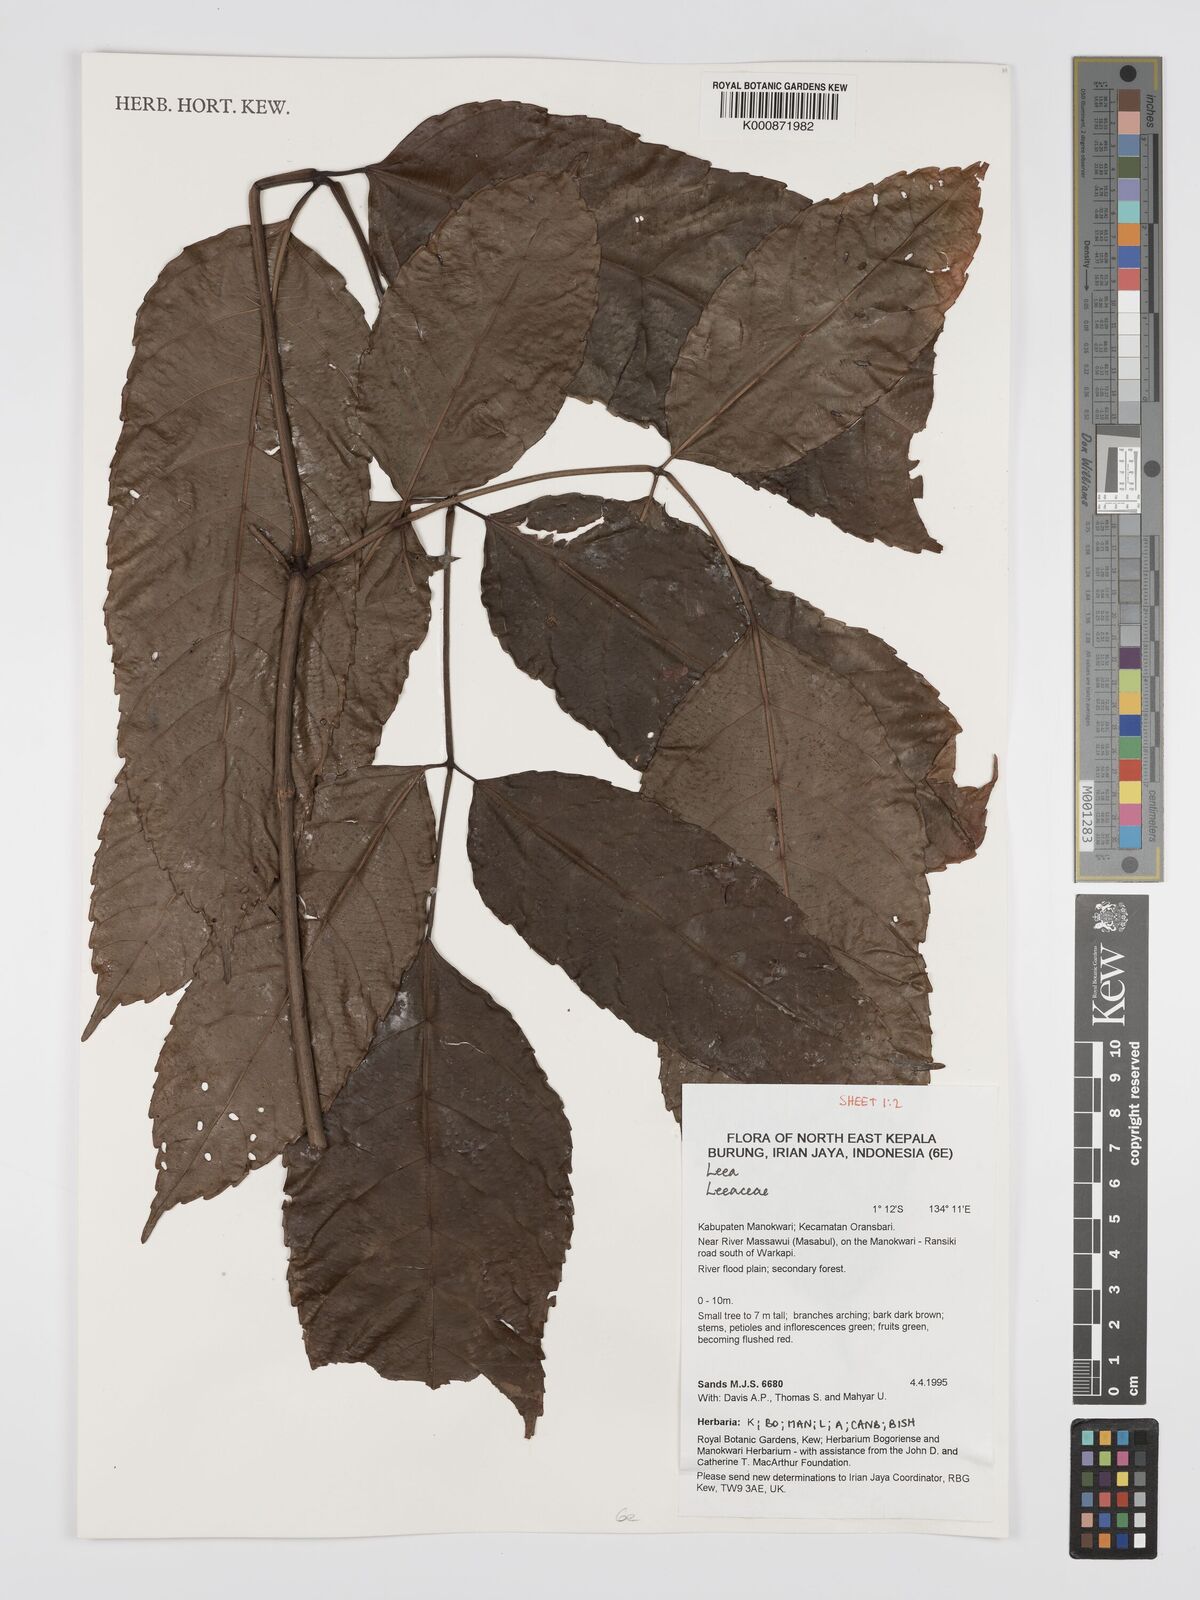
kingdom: Plantae
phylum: Tracheophyta
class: Magnoliopsida
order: Vitales
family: Vitaceae
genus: Leea
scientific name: Leea
